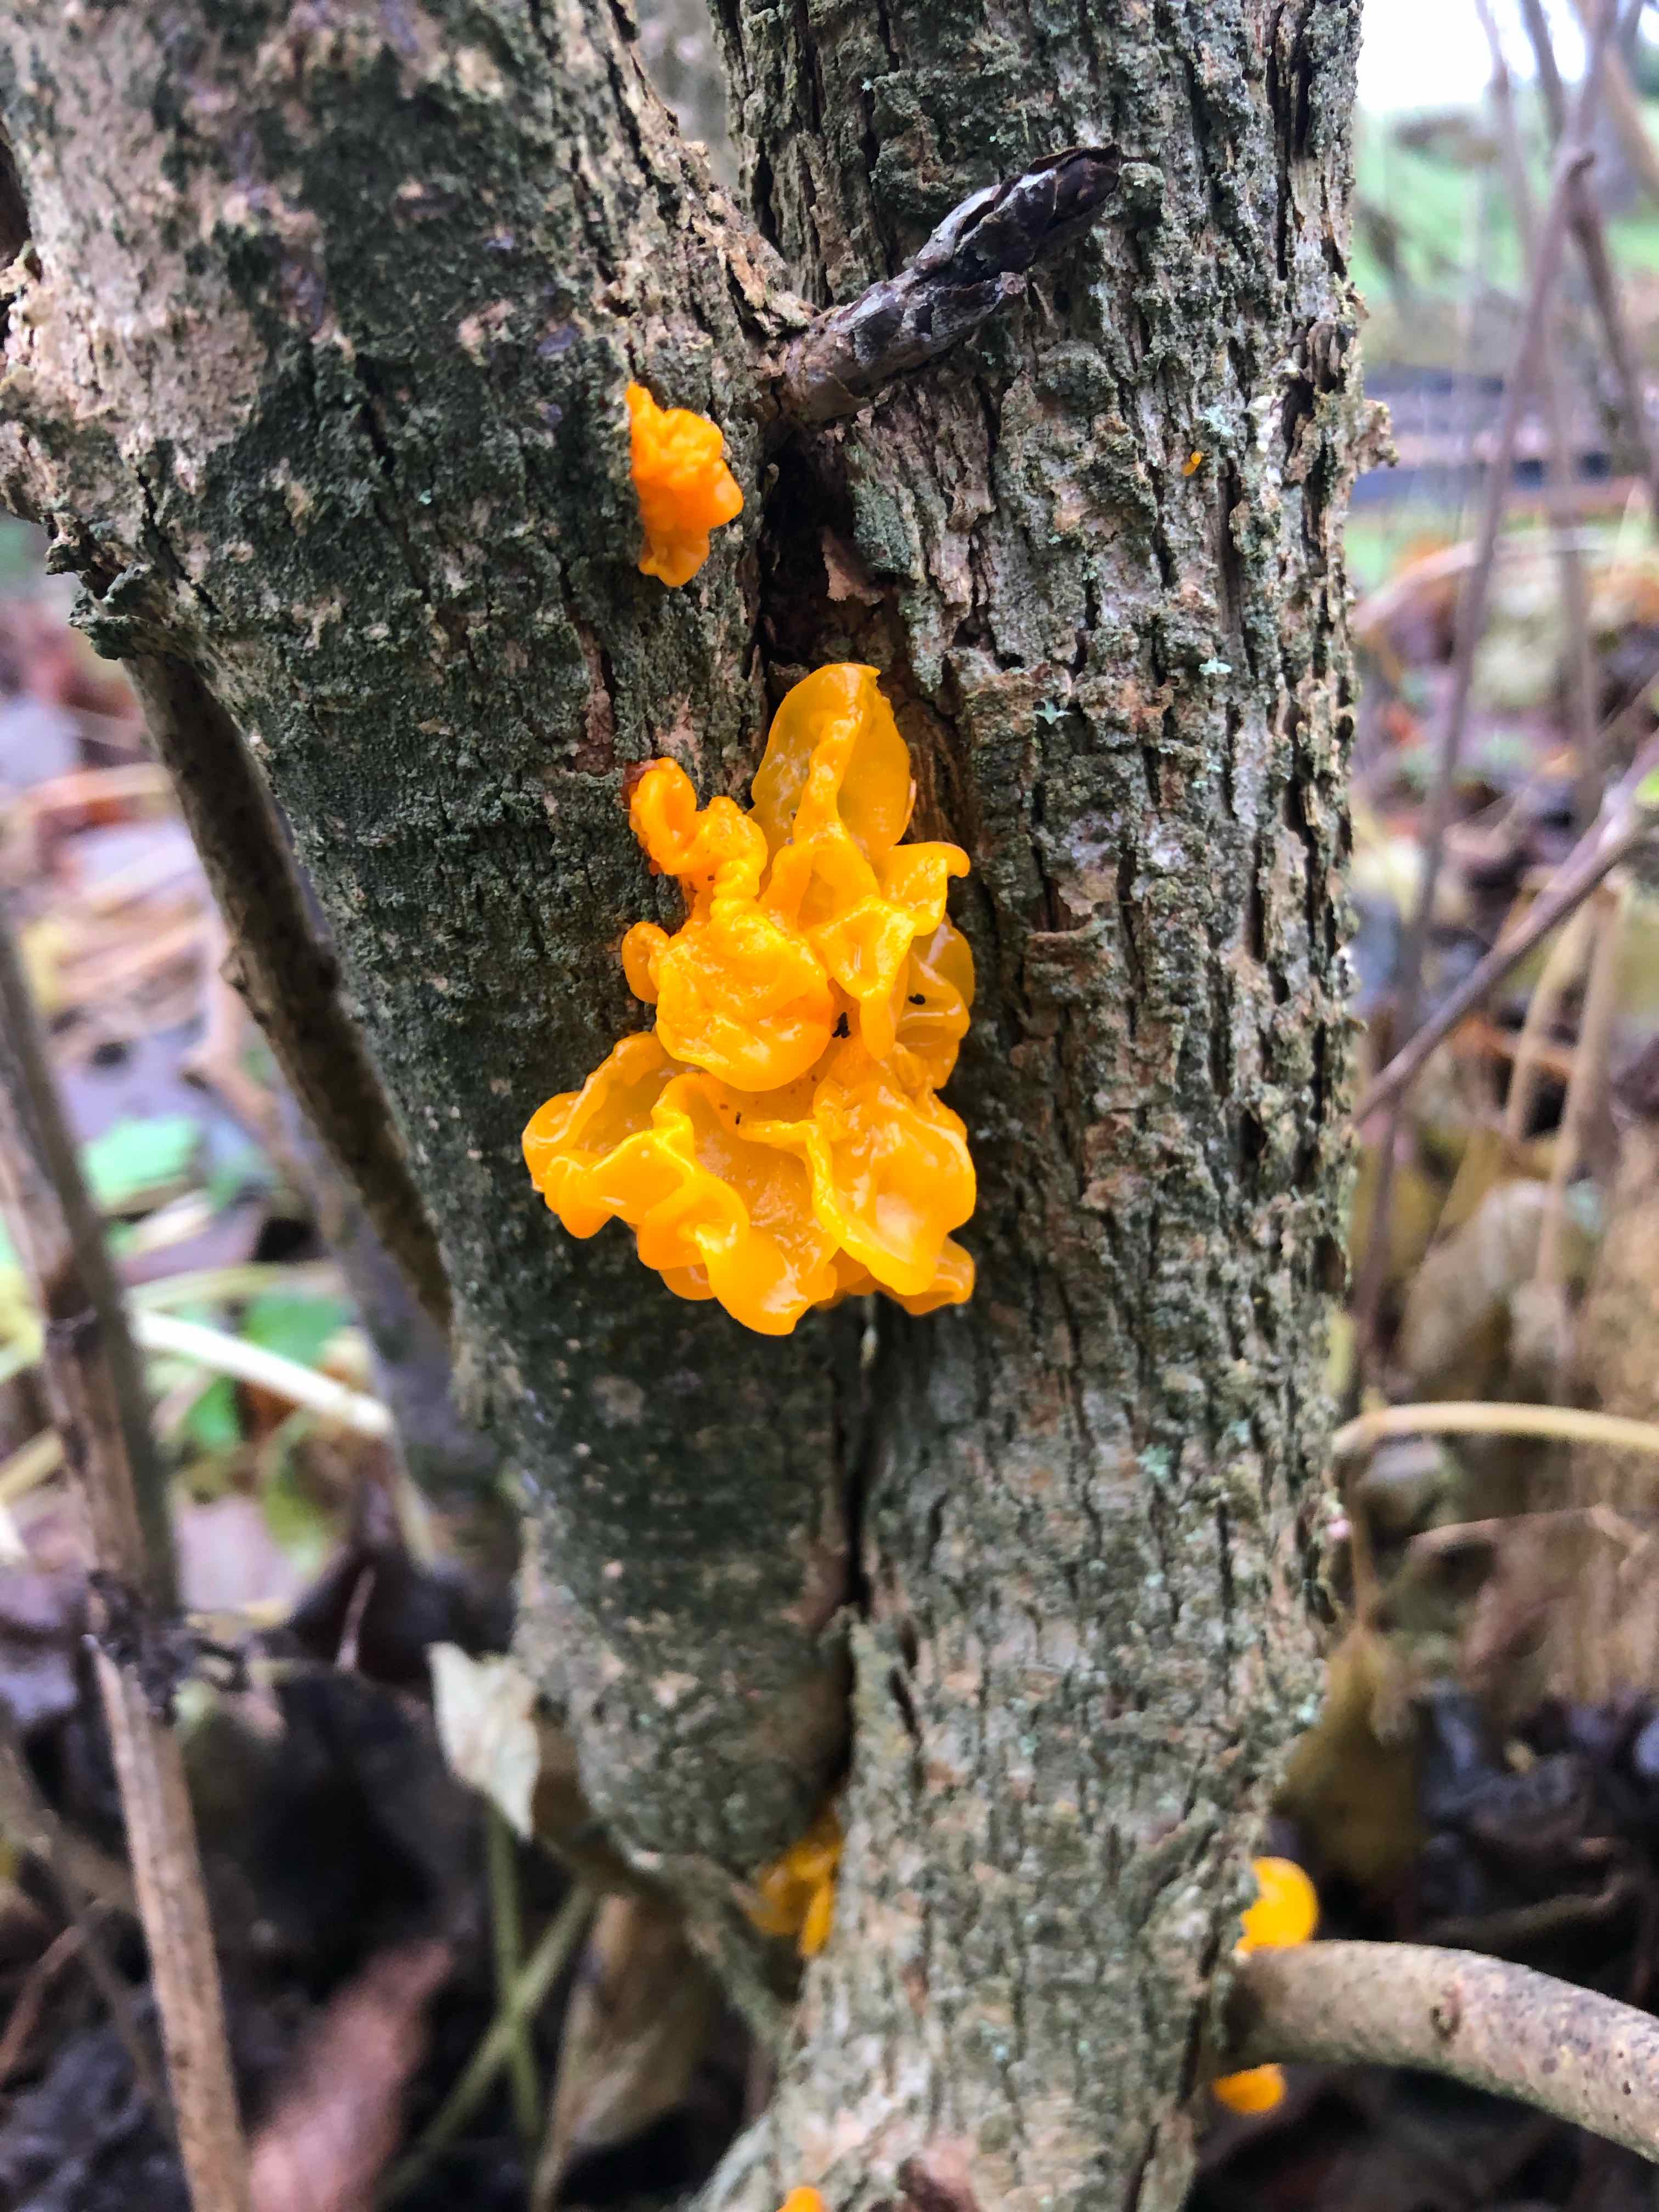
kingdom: Fungi
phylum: Basidiomycota
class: Tremellomycetes
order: Tremellales
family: Tremellaceae
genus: Tremella
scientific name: Tremella mesenterica
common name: gul bævresvamp
